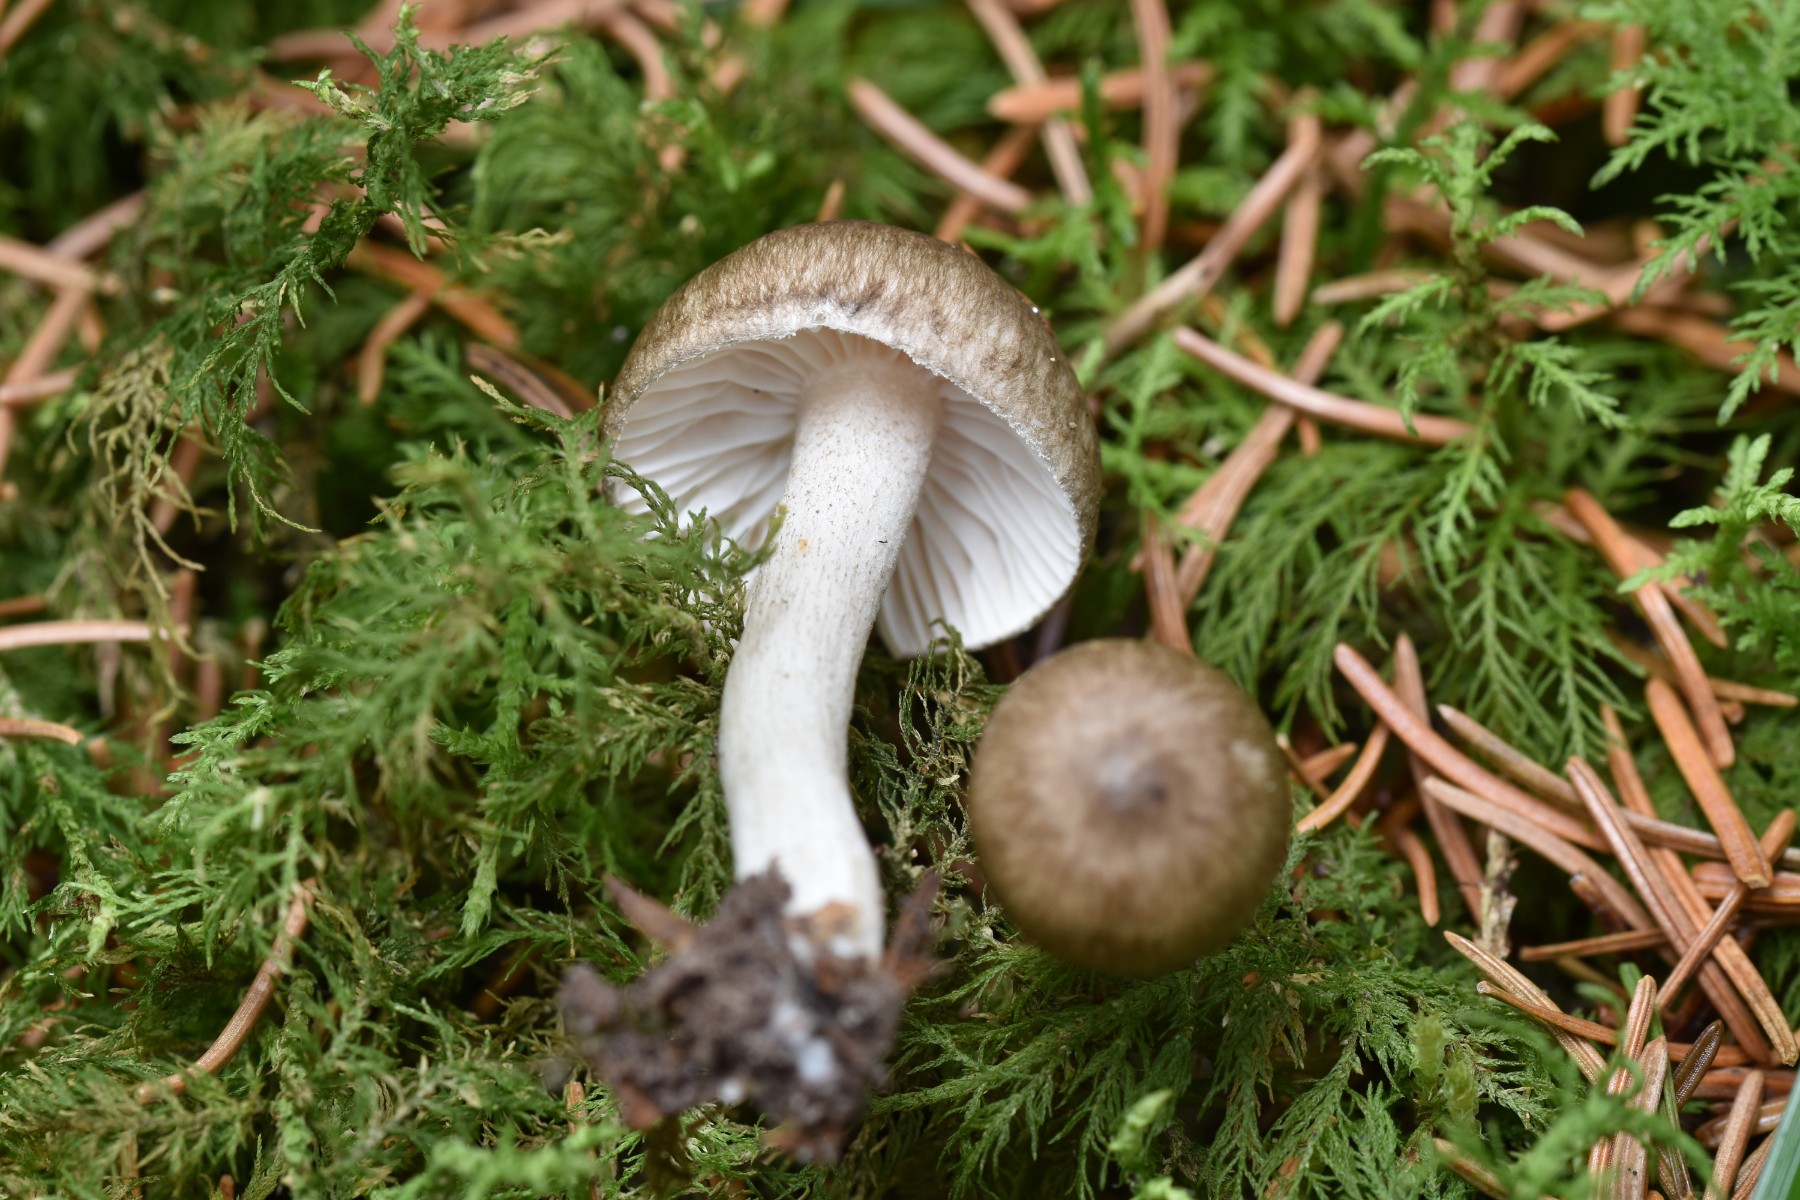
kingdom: Fungi
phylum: Basidiomycota
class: Agaricomycetes
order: Agaricales
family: Hygrophoraceae
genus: Hygrophorus
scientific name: Hygrophorus pustulatus
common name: mørkprikket sneglehat
